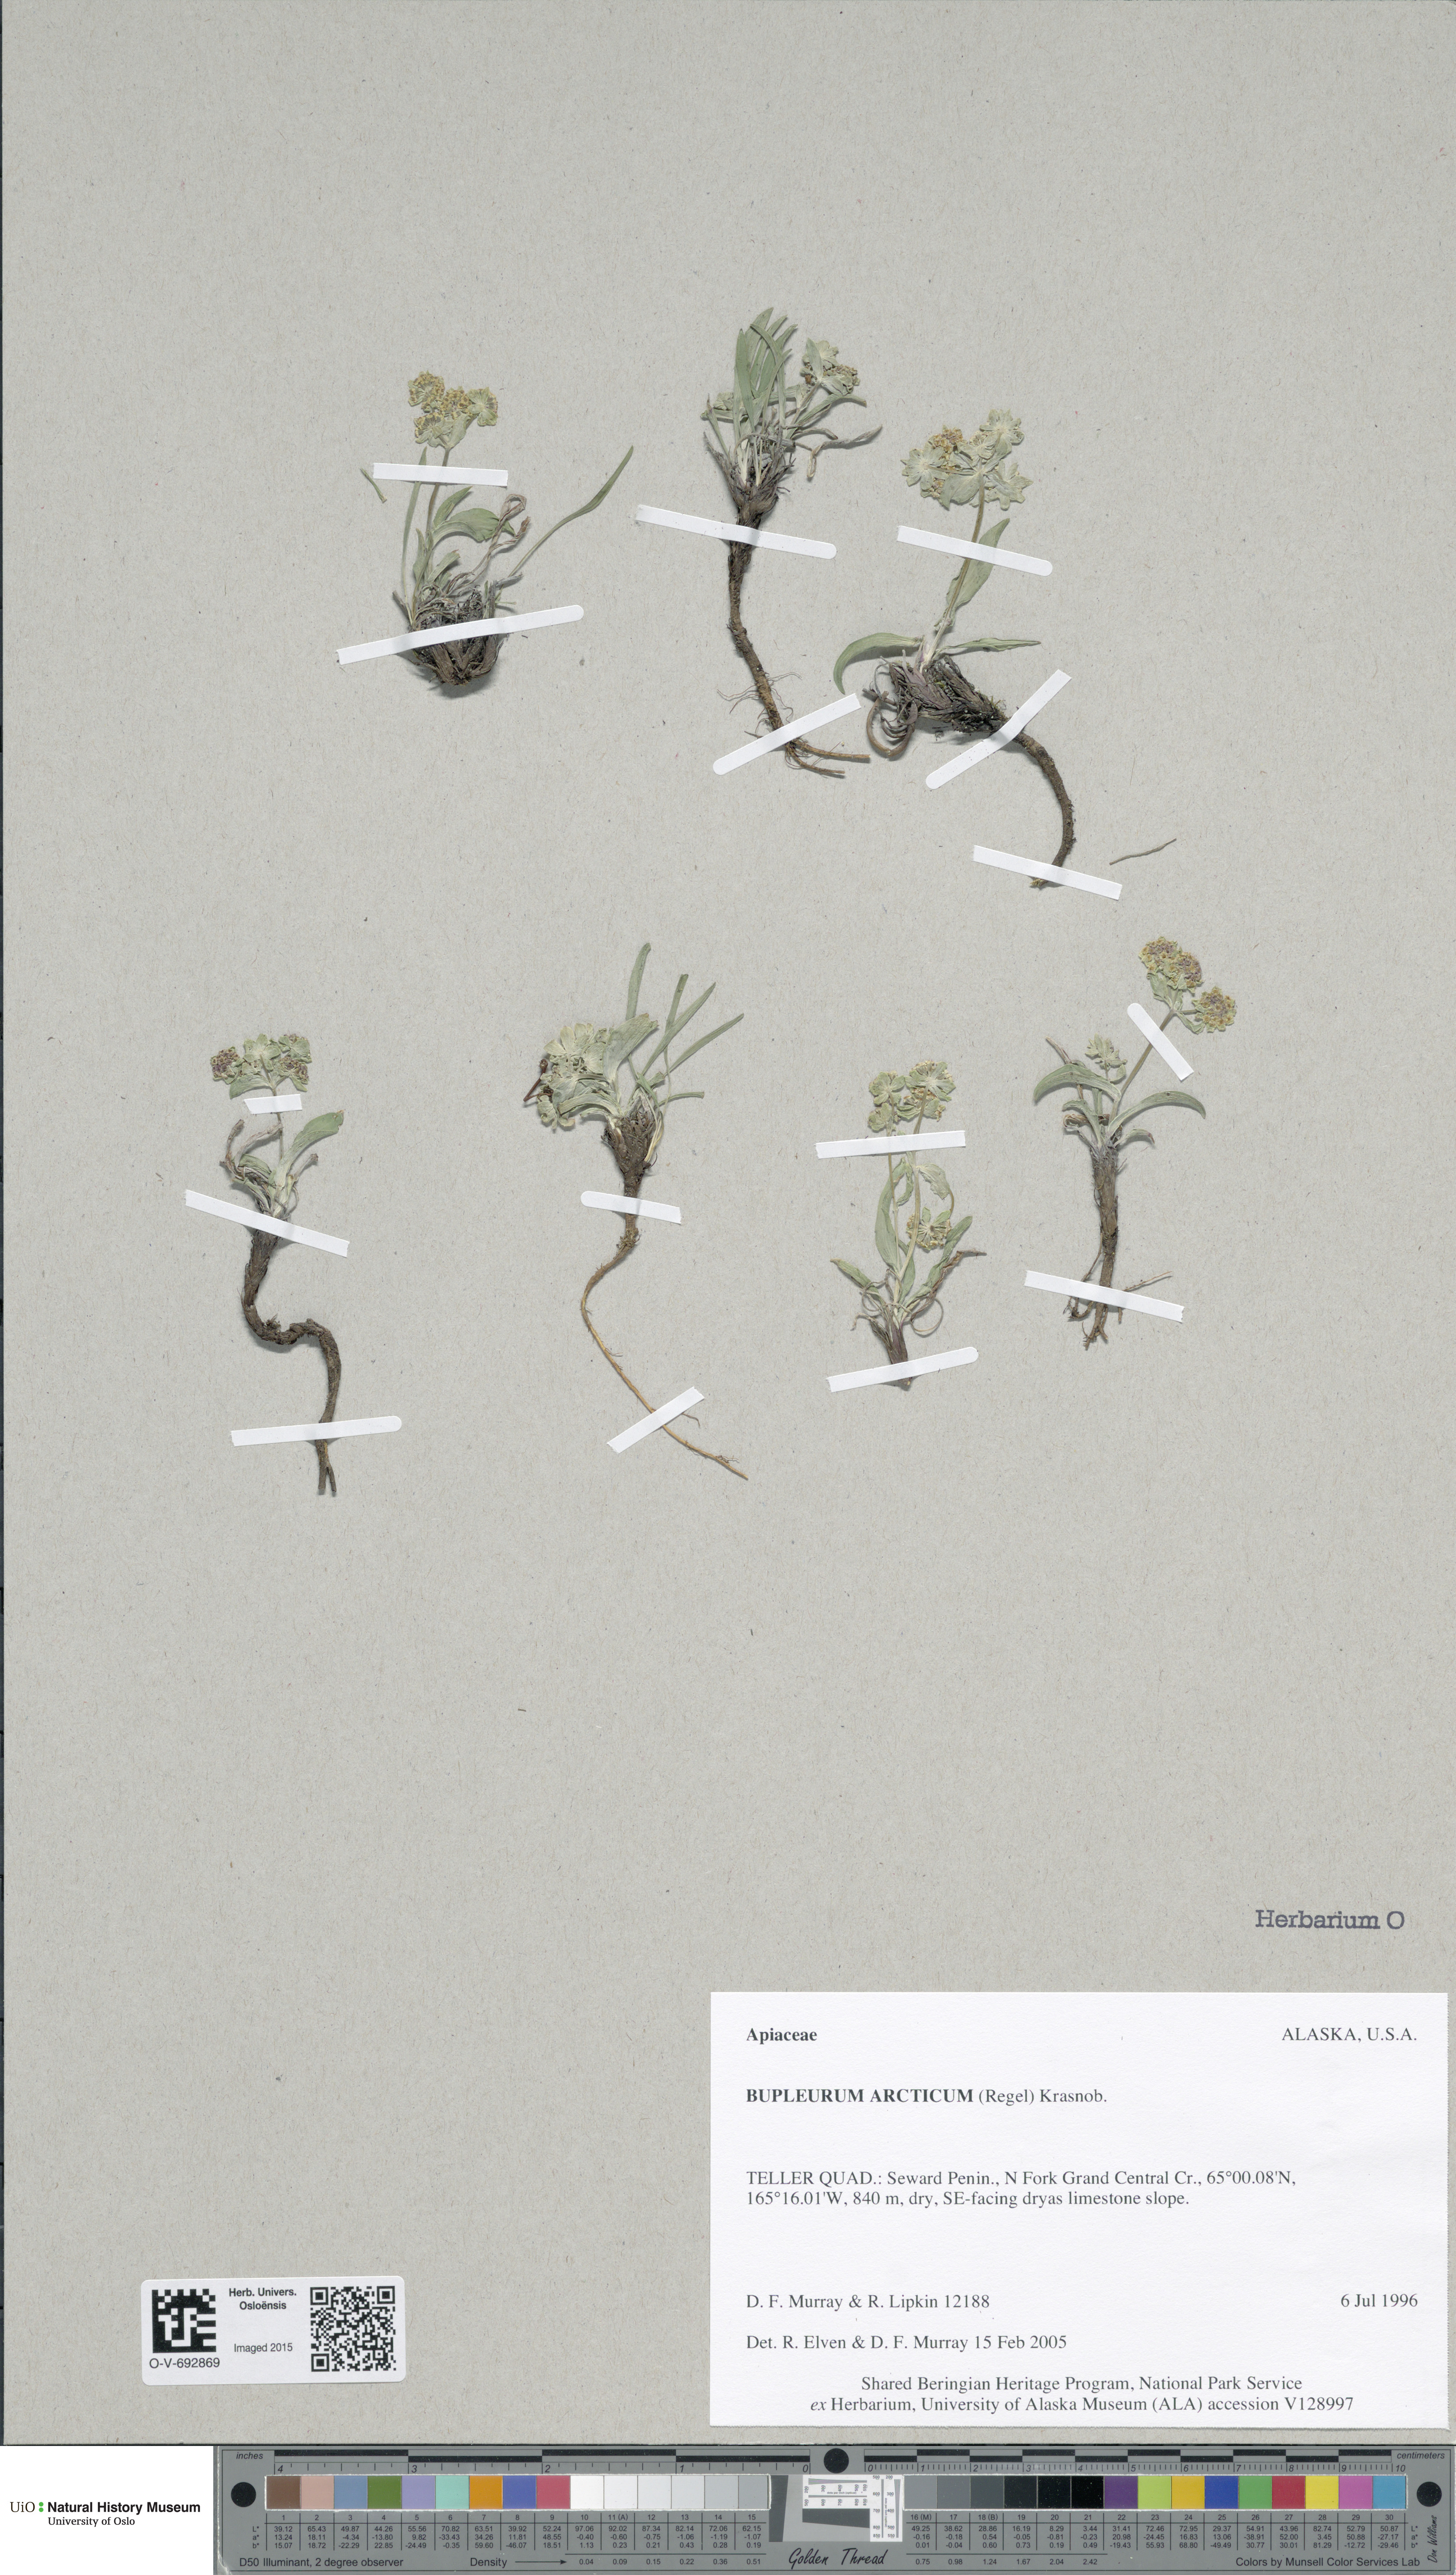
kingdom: Plantae
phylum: Tracheophyta
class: Magnoliopsida
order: Apiales
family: Apiaceae
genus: Bupleurum
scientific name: Bupleurum americanum
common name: American thoroughwax
